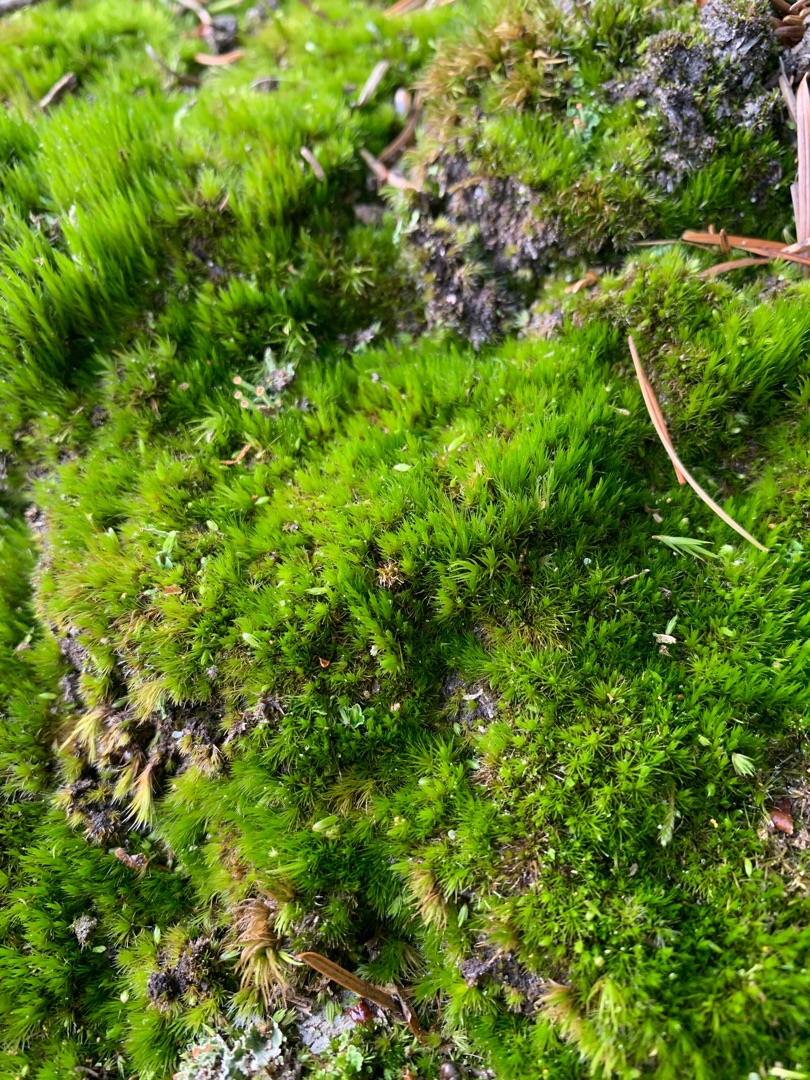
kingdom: Plantae
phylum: Bryophyta
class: Bryopsida
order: Dicranales
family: Leucobryaceae
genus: Campylopus
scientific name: Campylopus introflexus
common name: Stjerne-bredribbe
